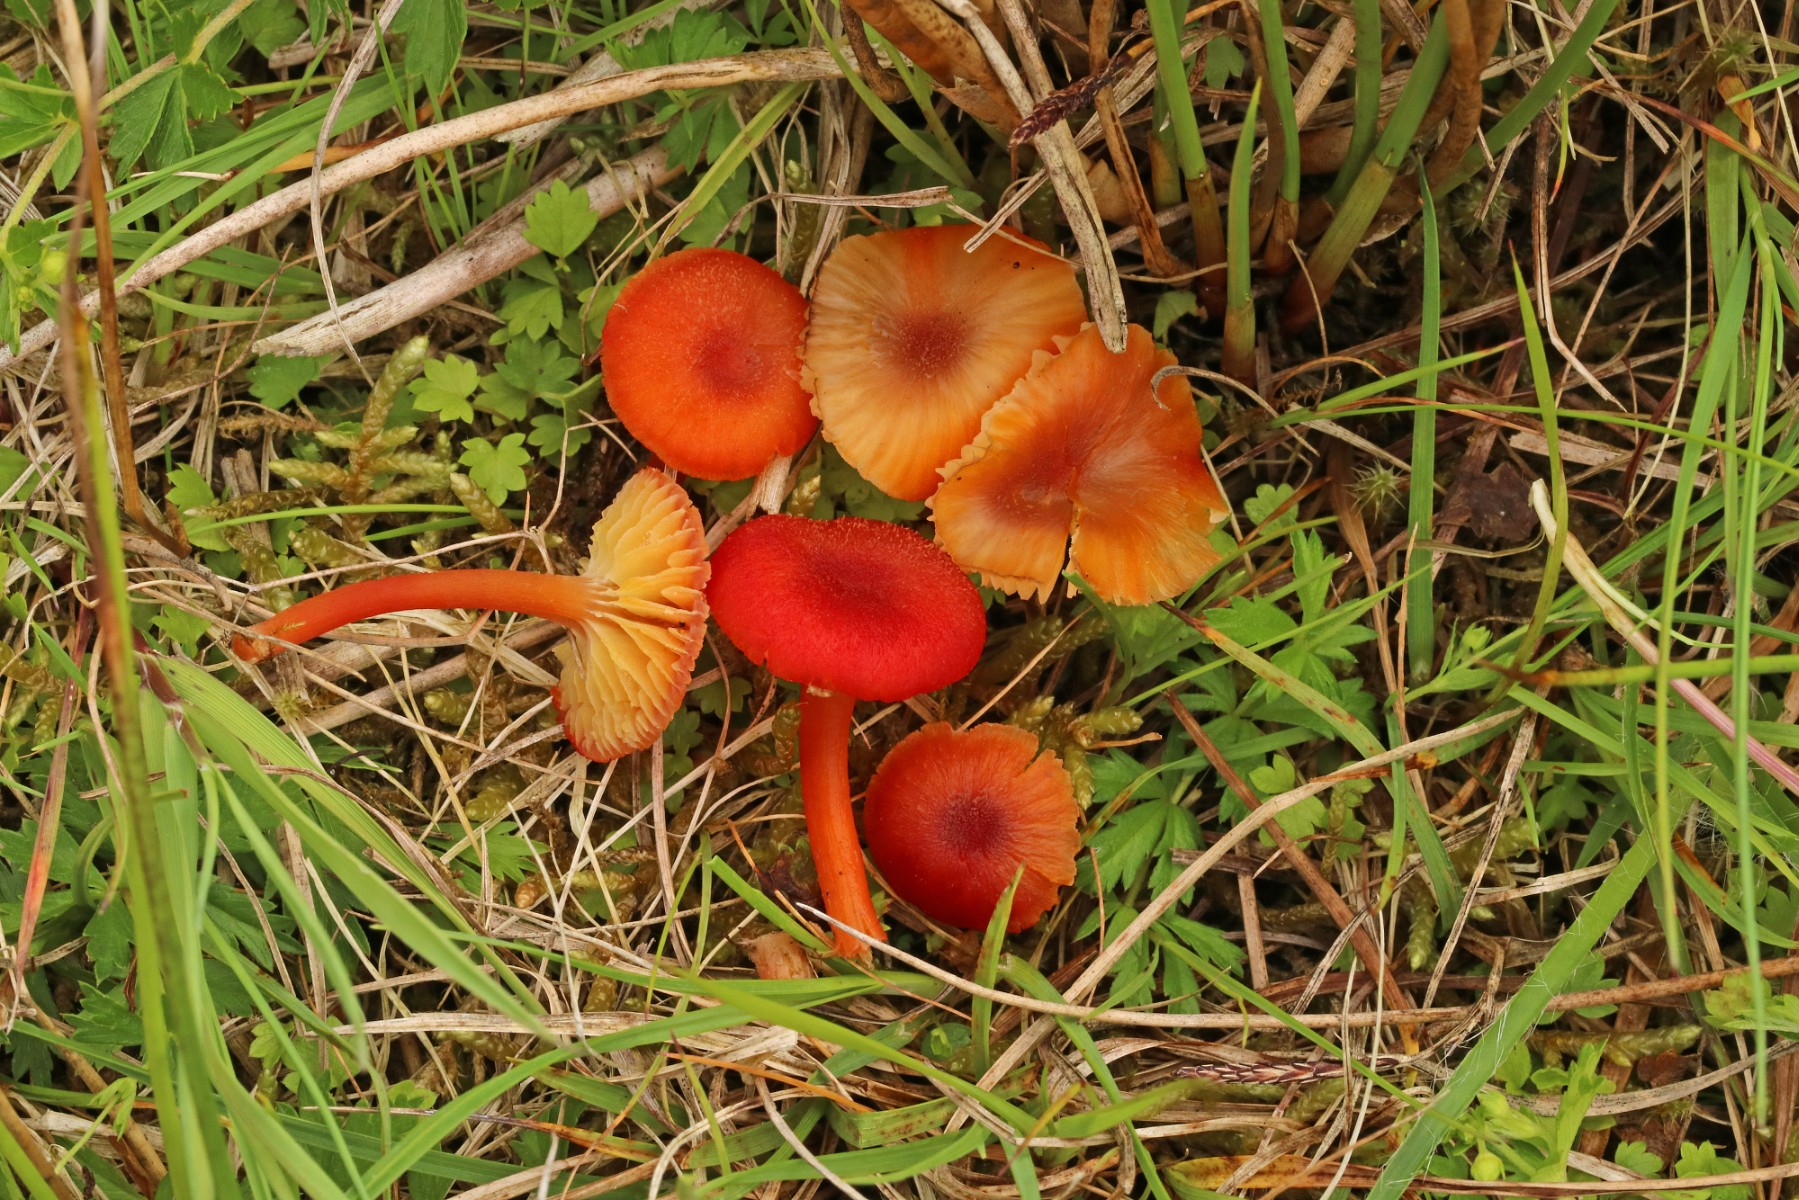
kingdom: Fungi
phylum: Basidiomycota
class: Agaricomycetes
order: Agaricales
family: Hygrophoraceae
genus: Hygrocybe
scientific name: Hygrocybe coccineocrenata
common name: tørvemos-vokshat
